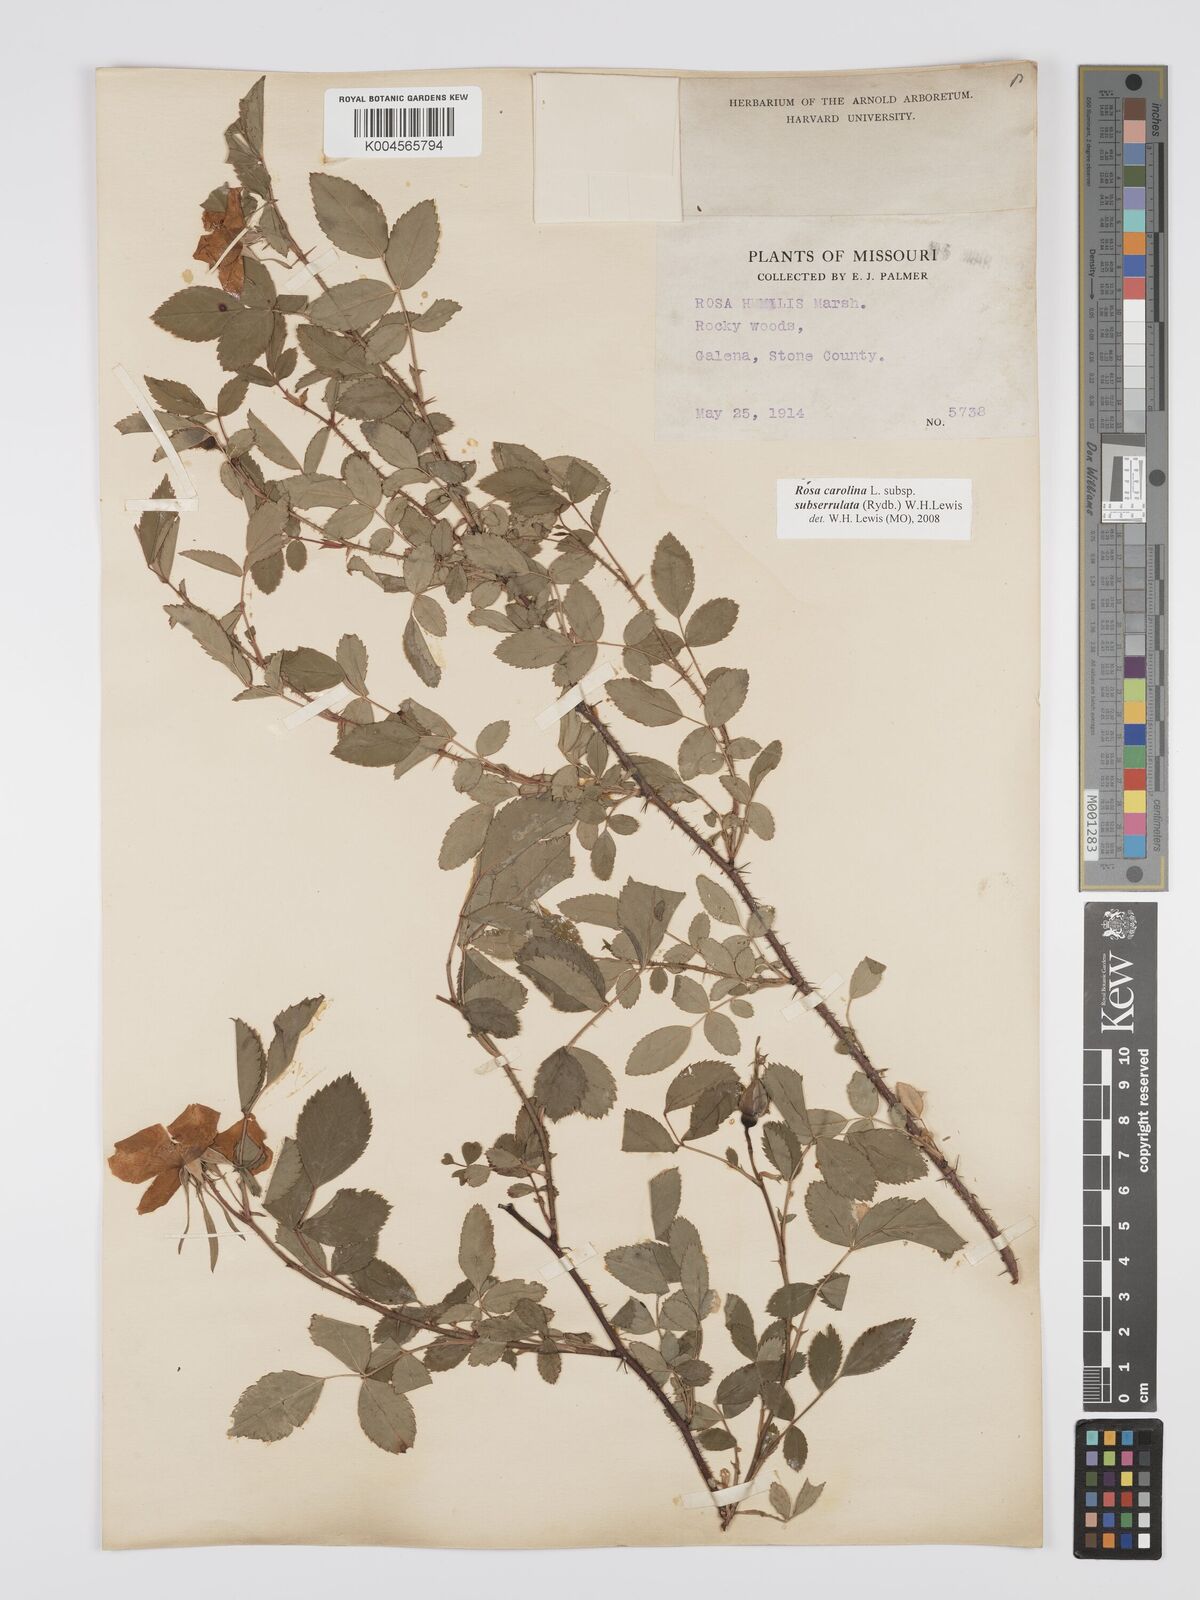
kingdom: Plantae
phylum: Tracheophyta
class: Magnoliopsida
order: Rosales
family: Rosaceae
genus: Rosa
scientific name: Rosa carolina
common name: Pasture rose
